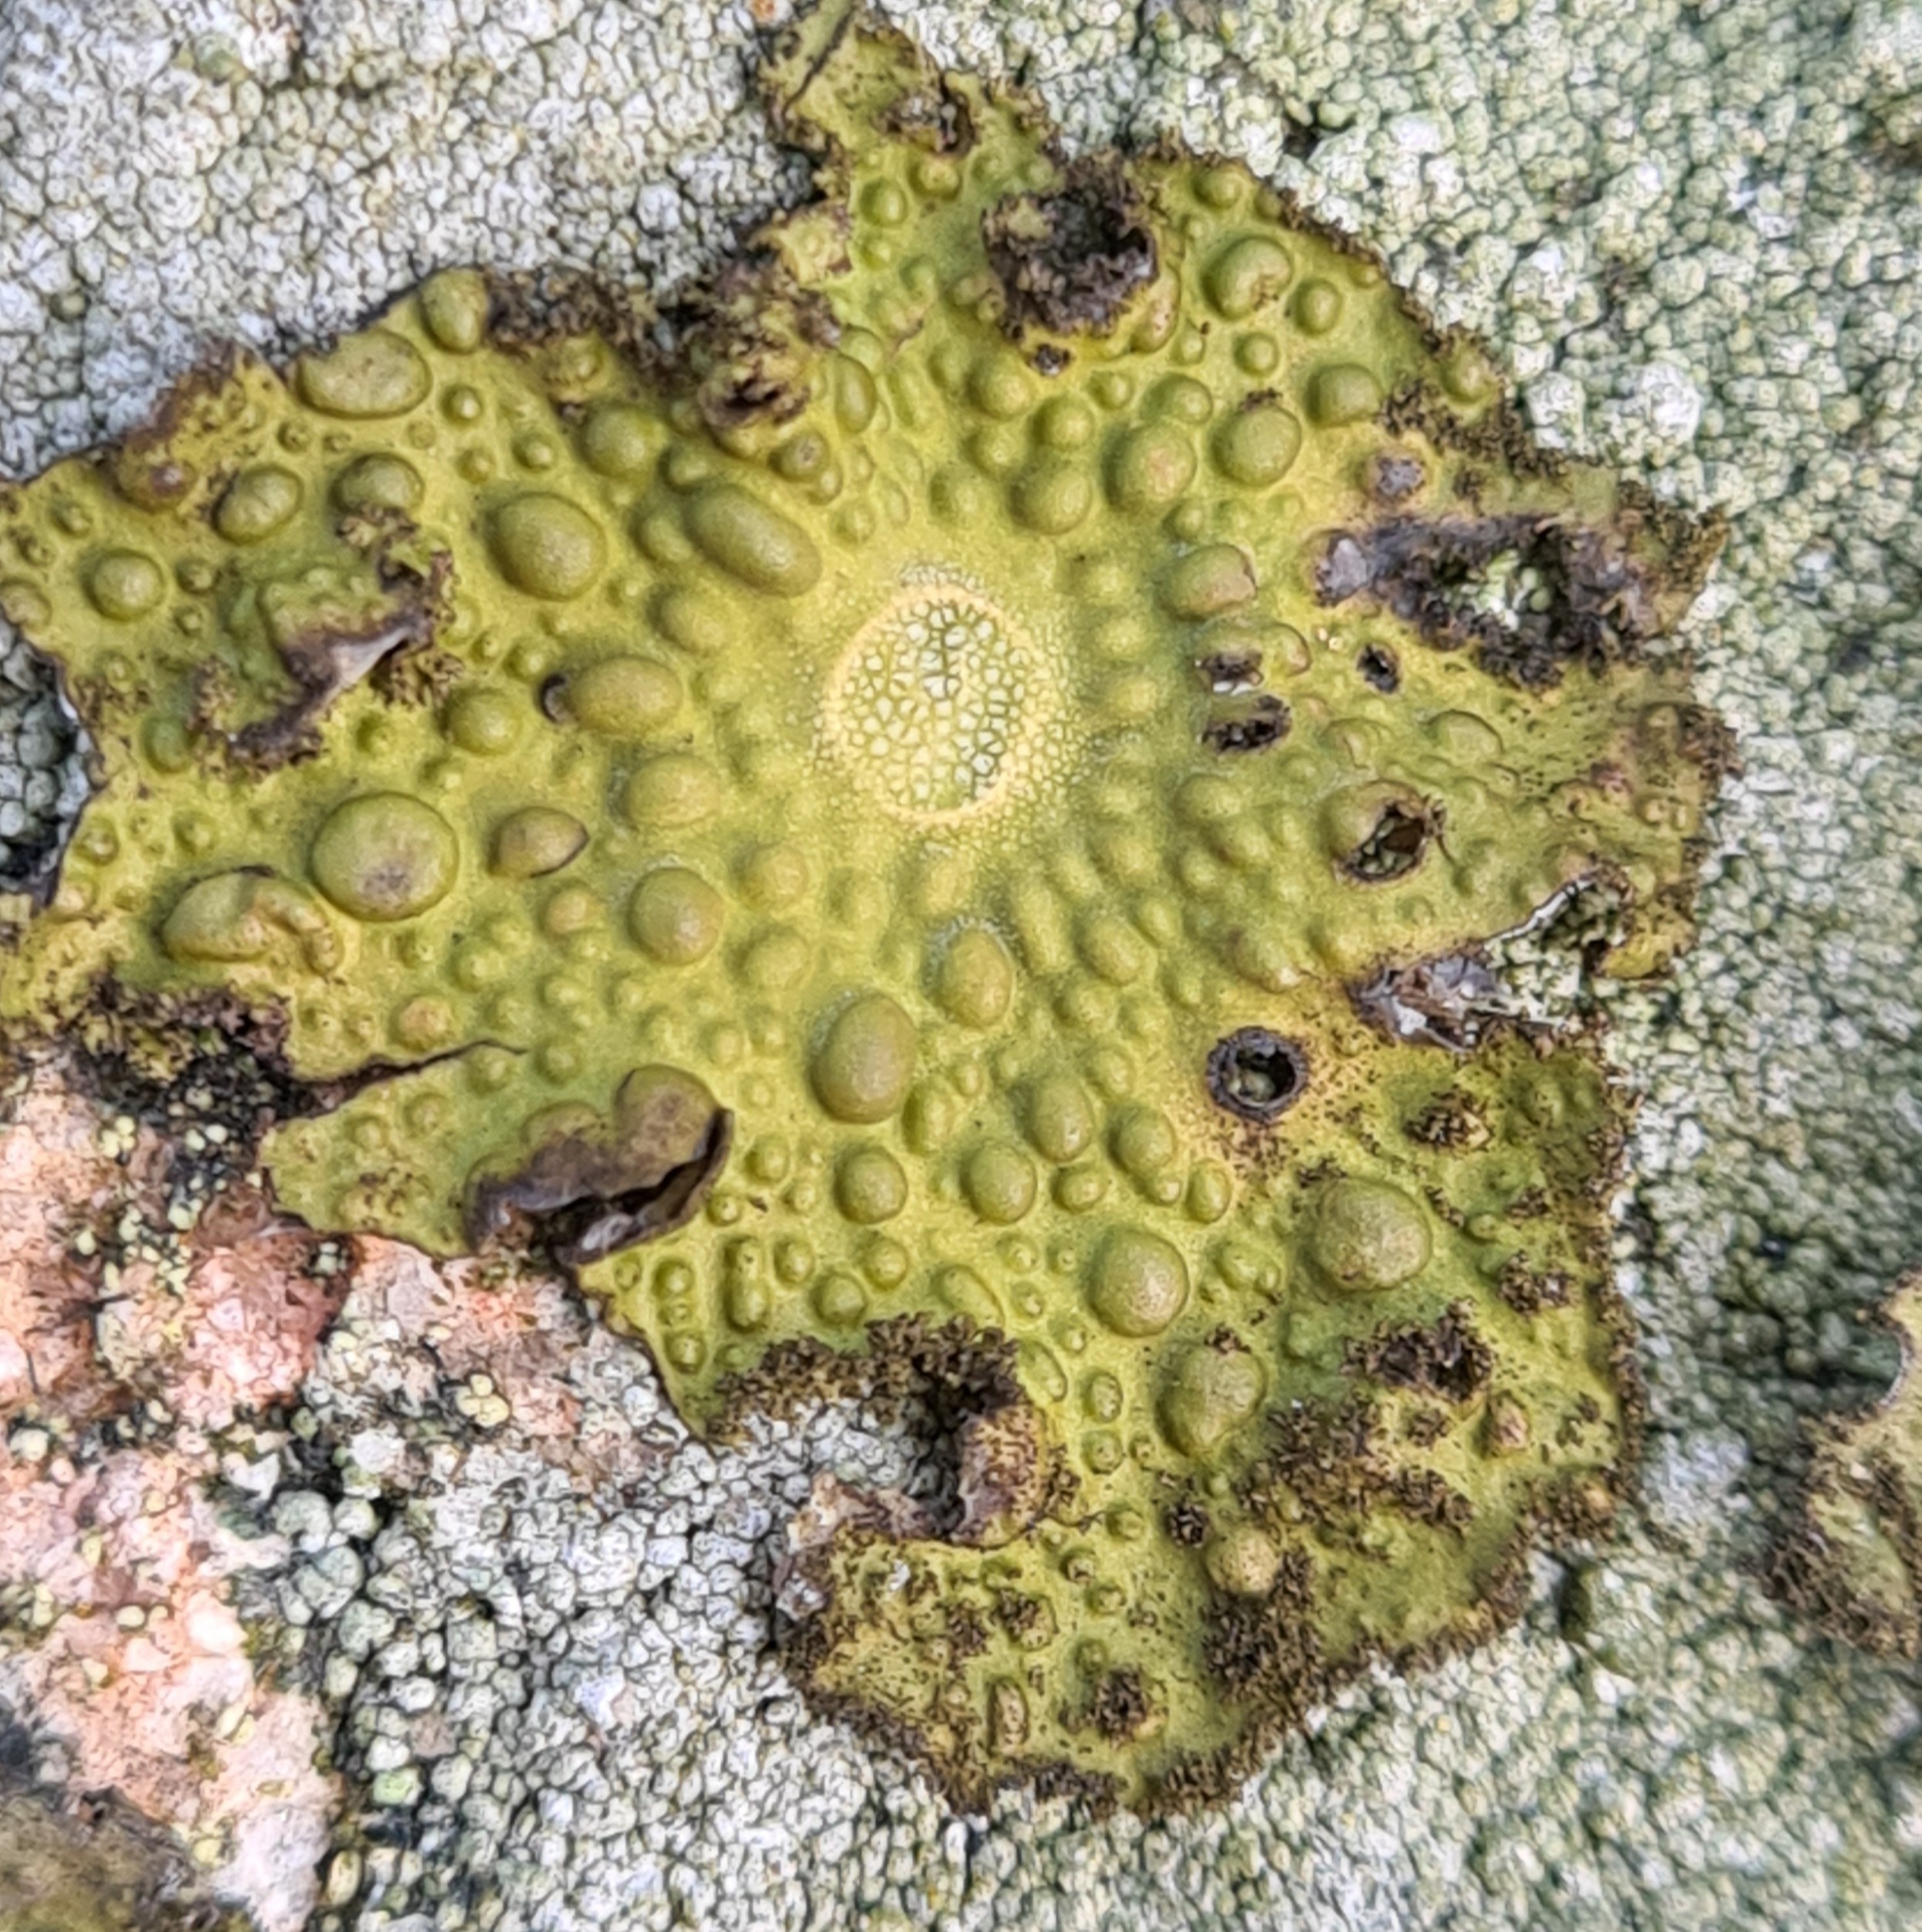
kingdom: Fungi
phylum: Ascomycota
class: Lecanoromycetes
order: Umbilicariales
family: Umbilicariaceae
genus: Lasallia
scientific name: Lasallia pustulata
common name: Buklet navlelav
